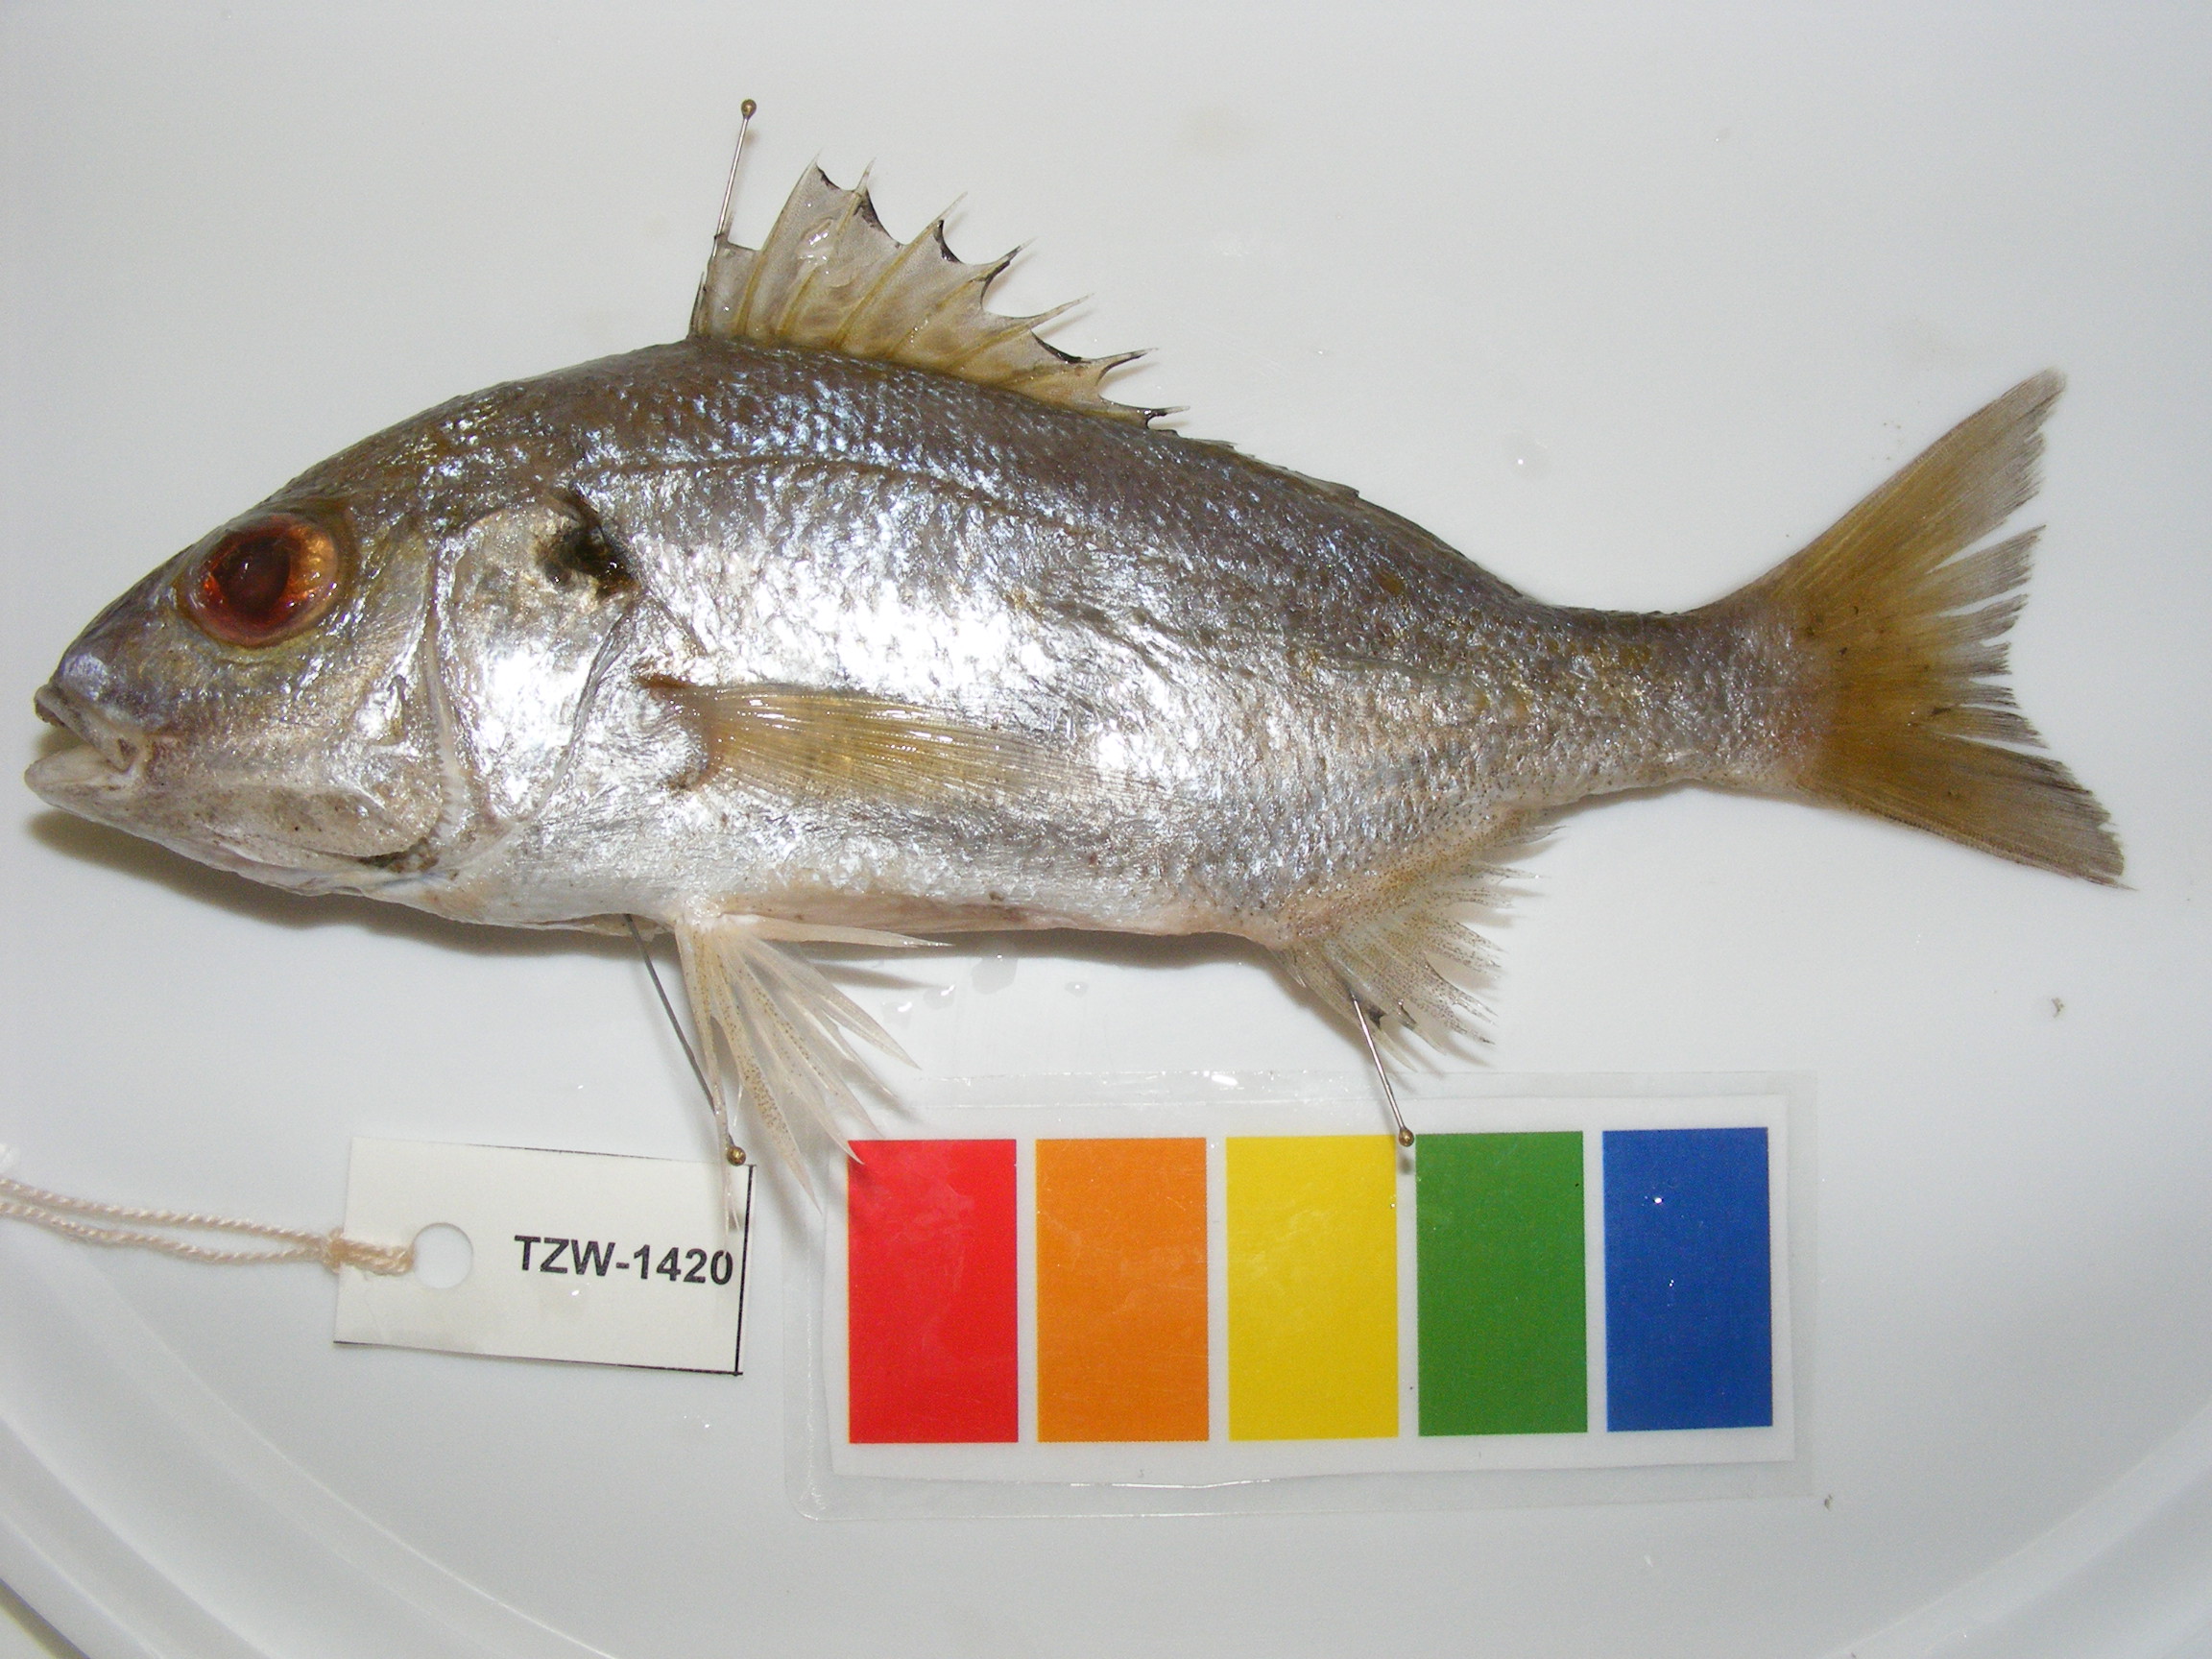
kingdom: Animalia
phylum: Chordata
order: Perciformes
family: Haemulidae
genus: Pomadasys
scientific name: Pomadasys olivaceus
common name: Olive grunt
